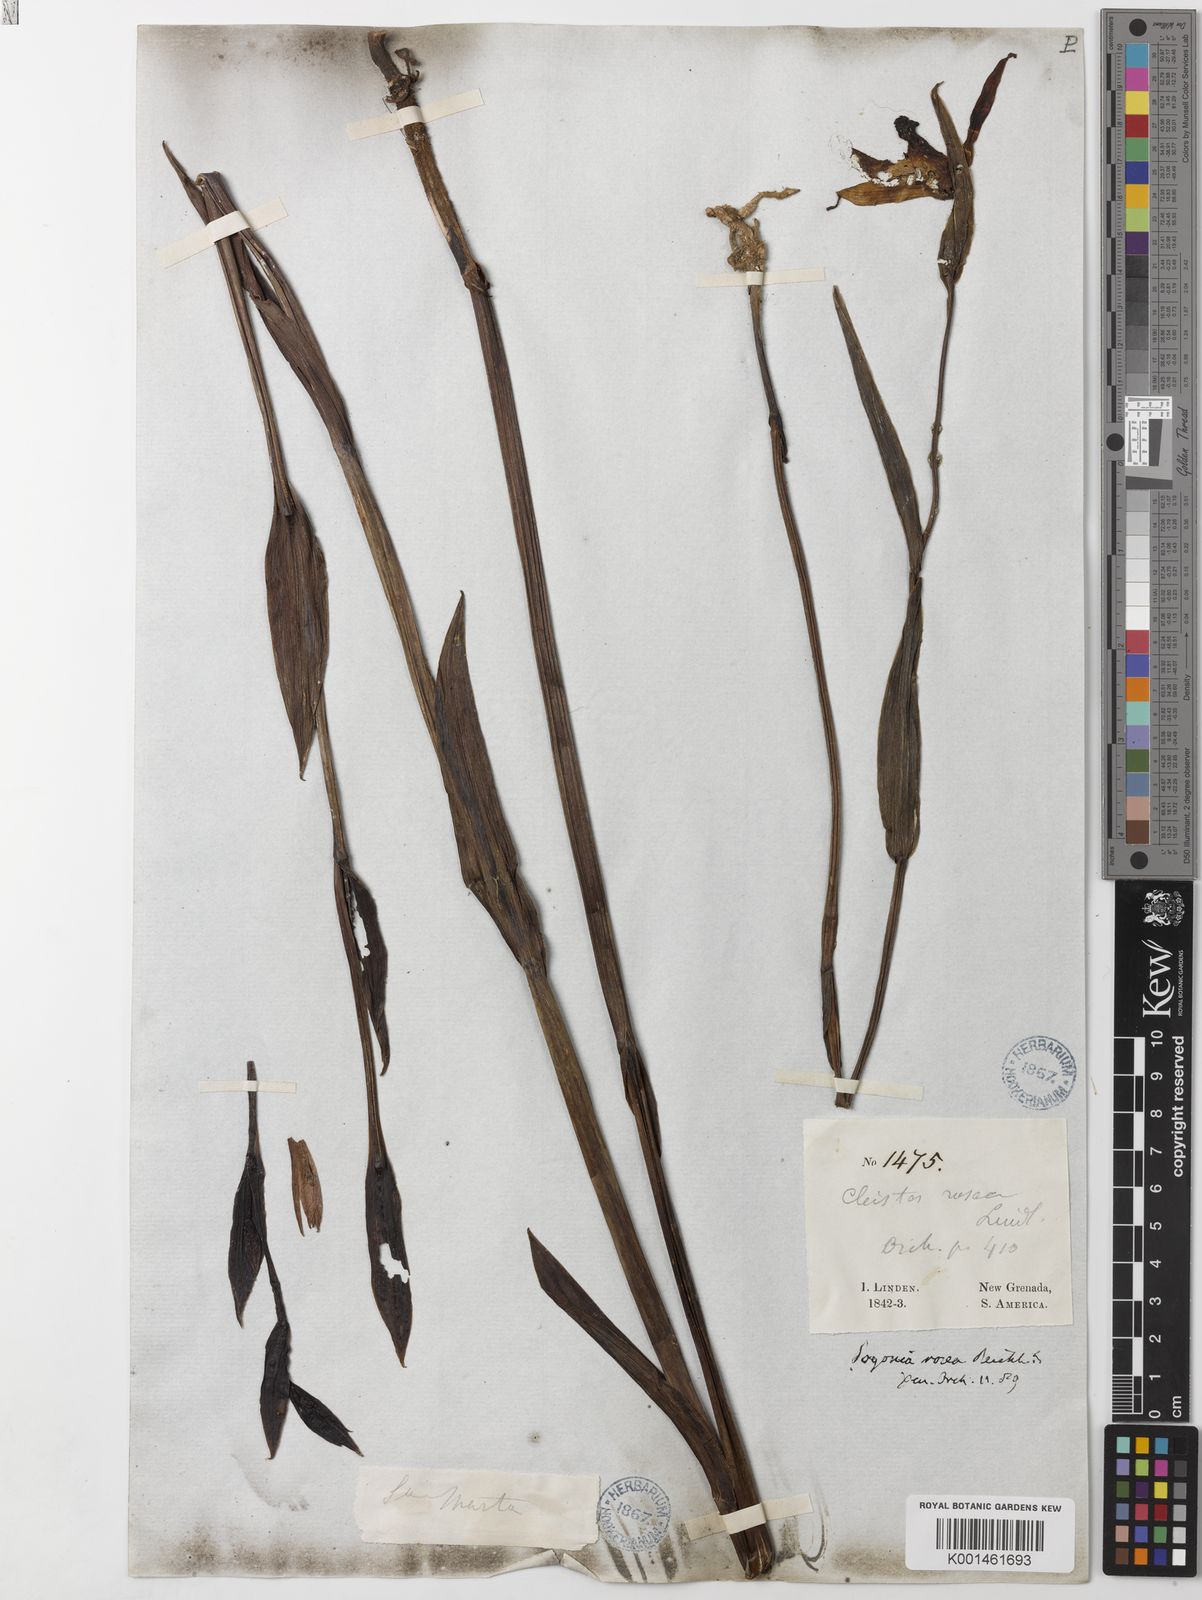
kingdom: Plantae
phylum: Tracheophyta
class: Liliopsida
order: Asparagales
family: Orchidaceae
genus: Cleistes
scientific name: Cleistes rosea
